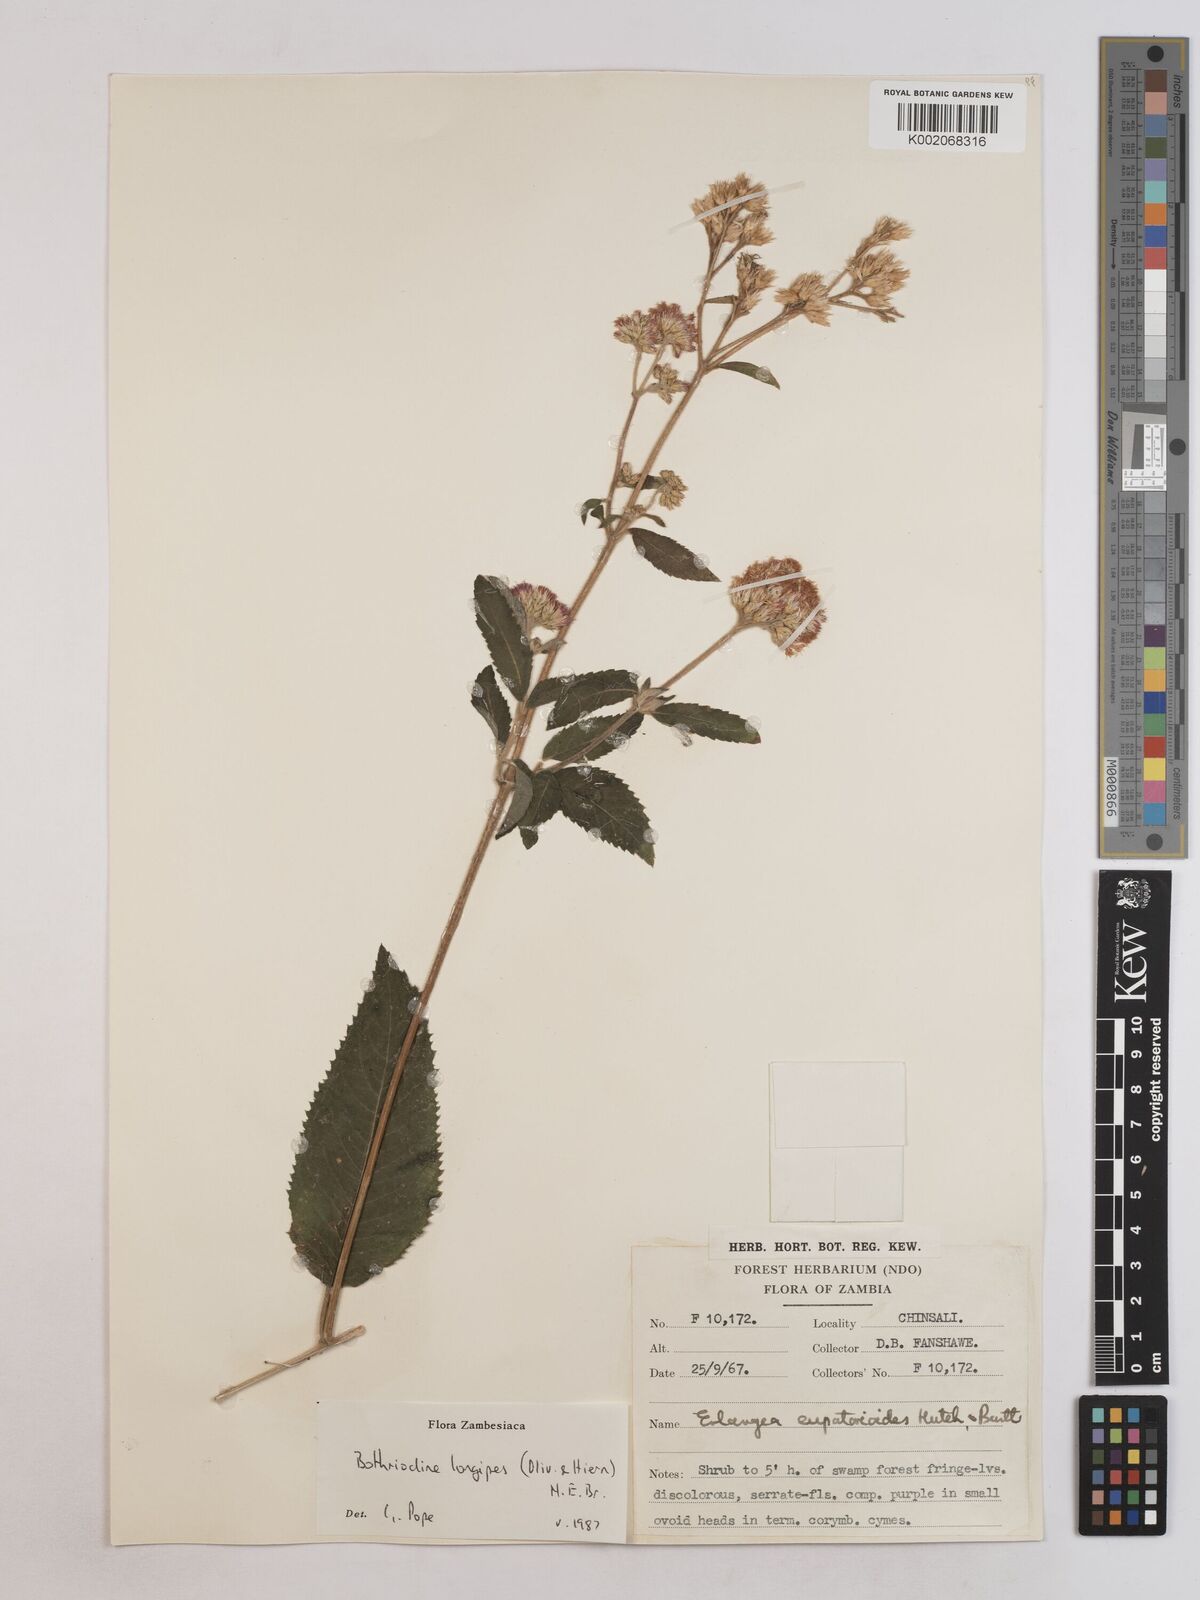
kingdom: Plantae
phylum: Tracheophyta
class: Magnoliopsida
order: Asterales
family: Asteraceae
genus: Bothriocline
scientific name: Bothriocline longipes
